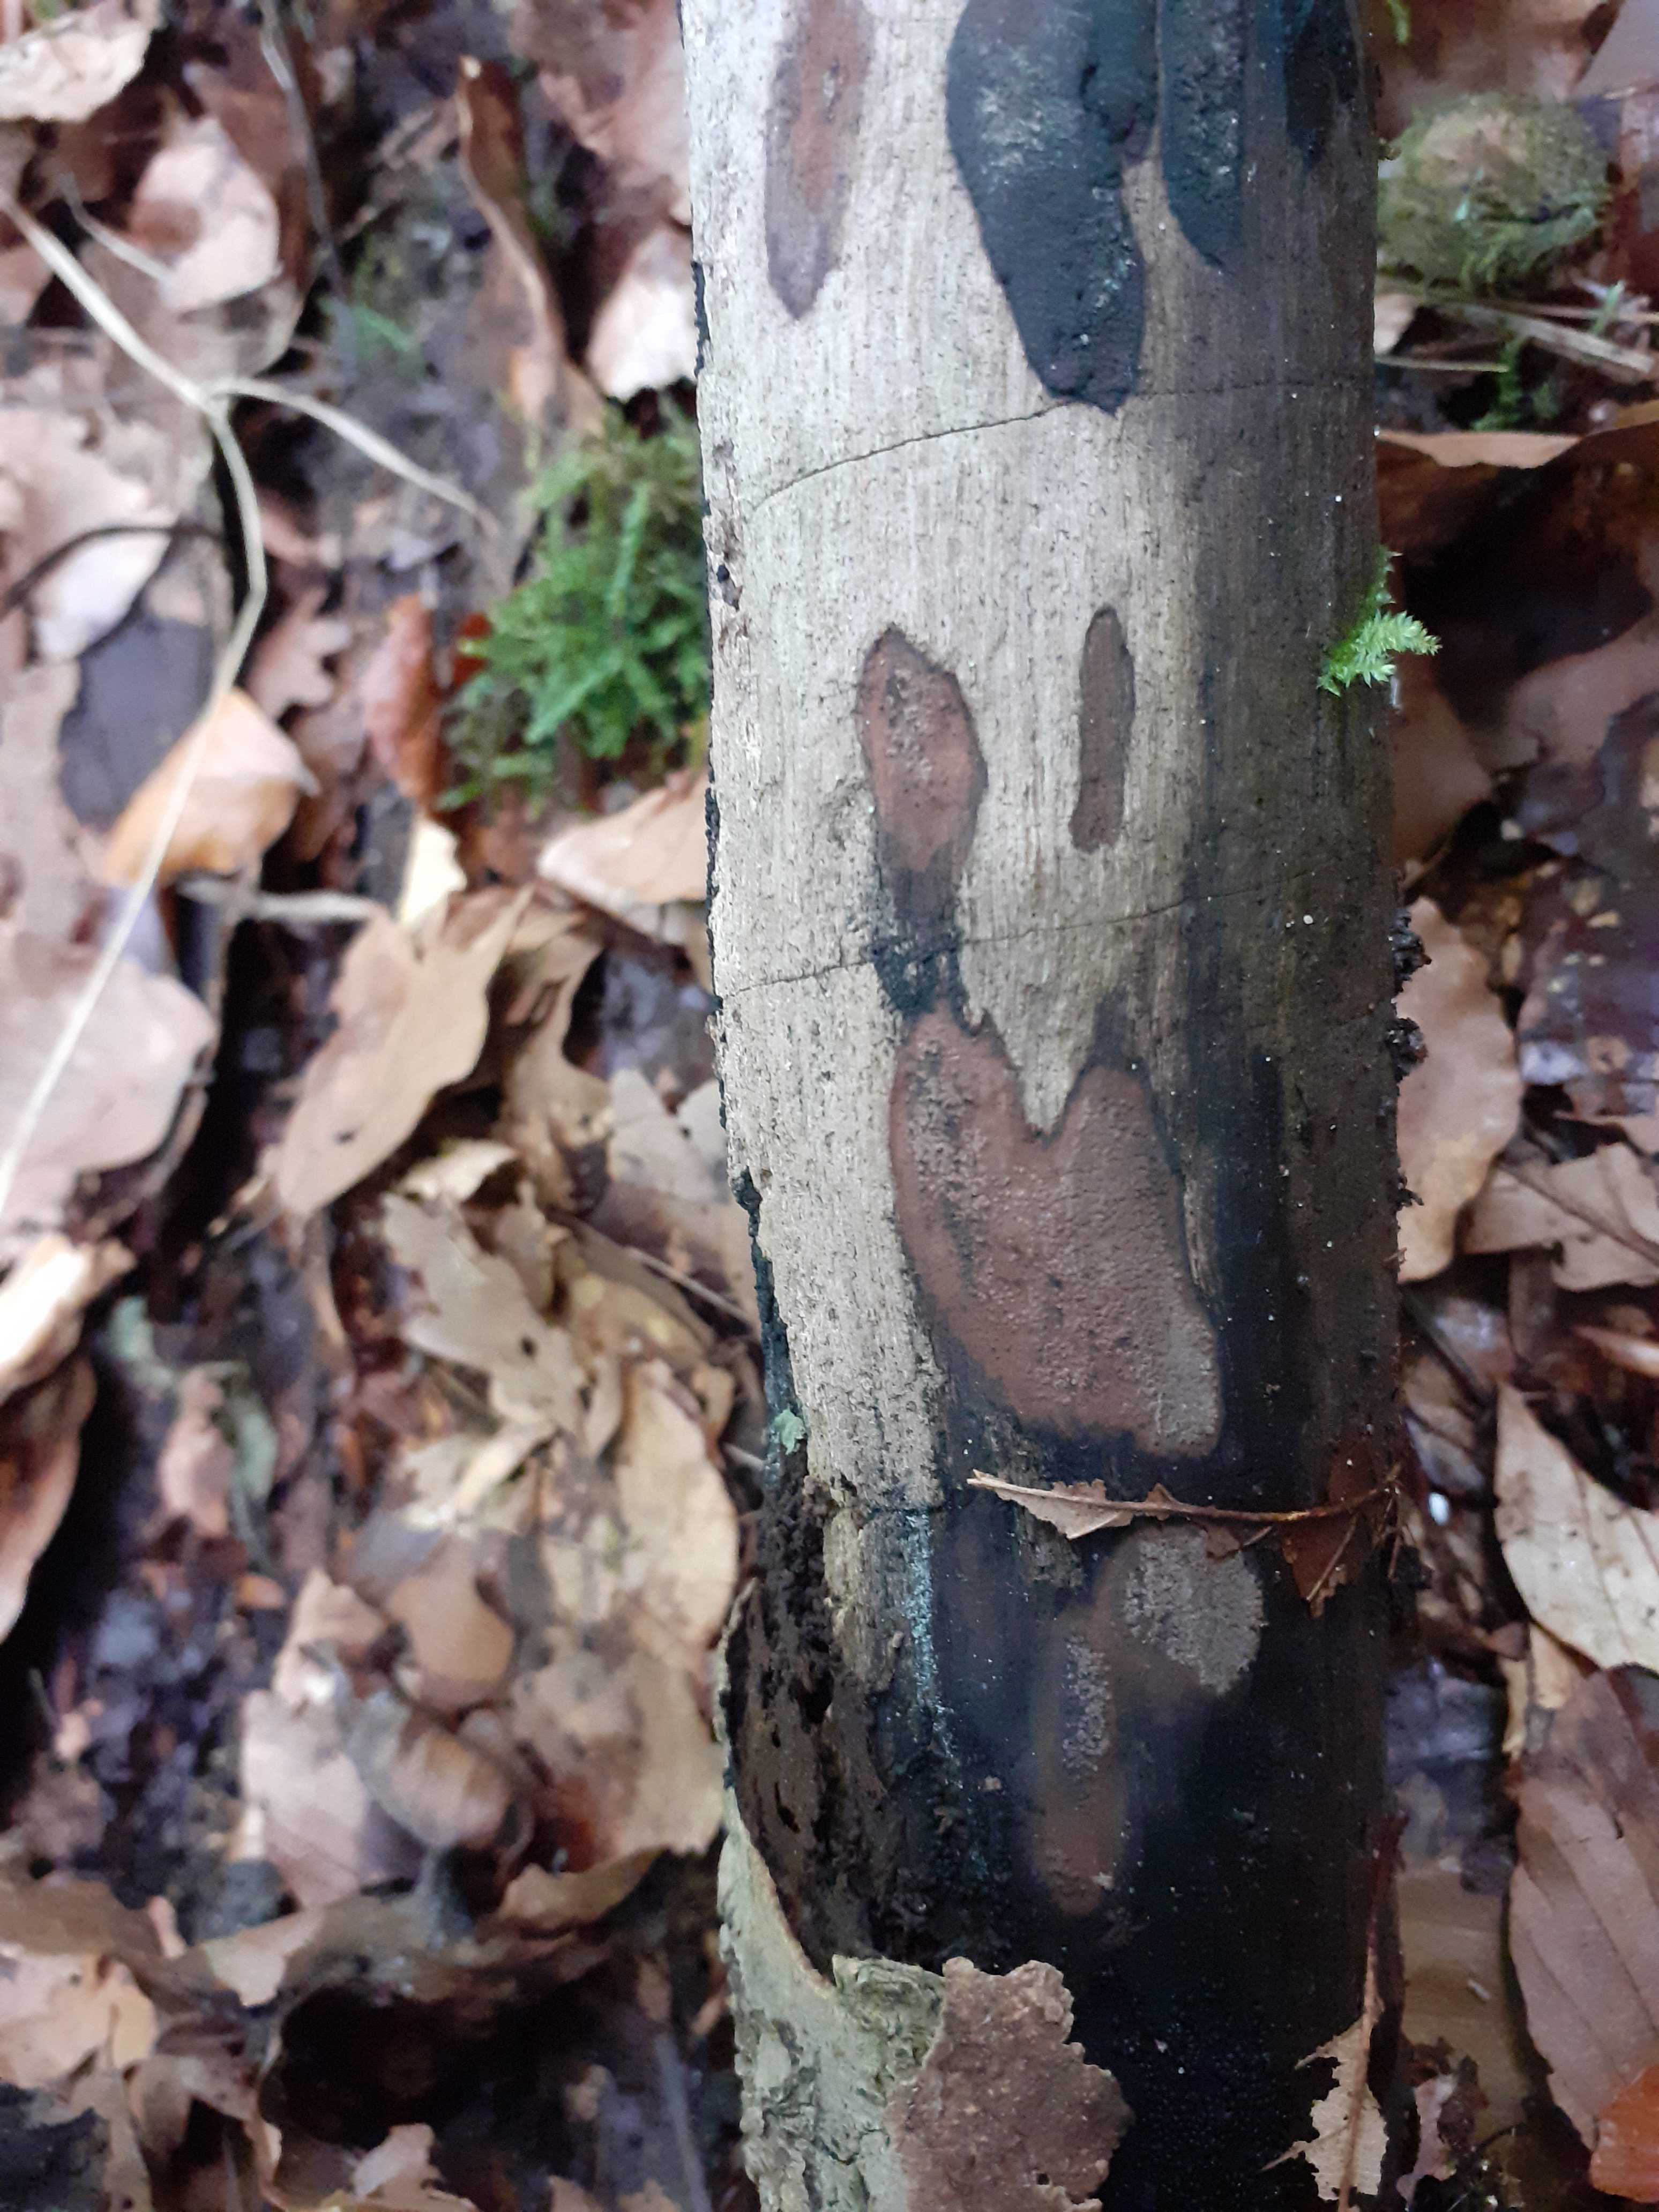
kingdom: Fungi
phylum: Ascomycota
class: Sordariomycetes
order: Xylariales
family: Hypoxylaceae
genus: Hypoxylon
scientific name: Hypoxylon petriniae
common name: nedsænket kulbær
